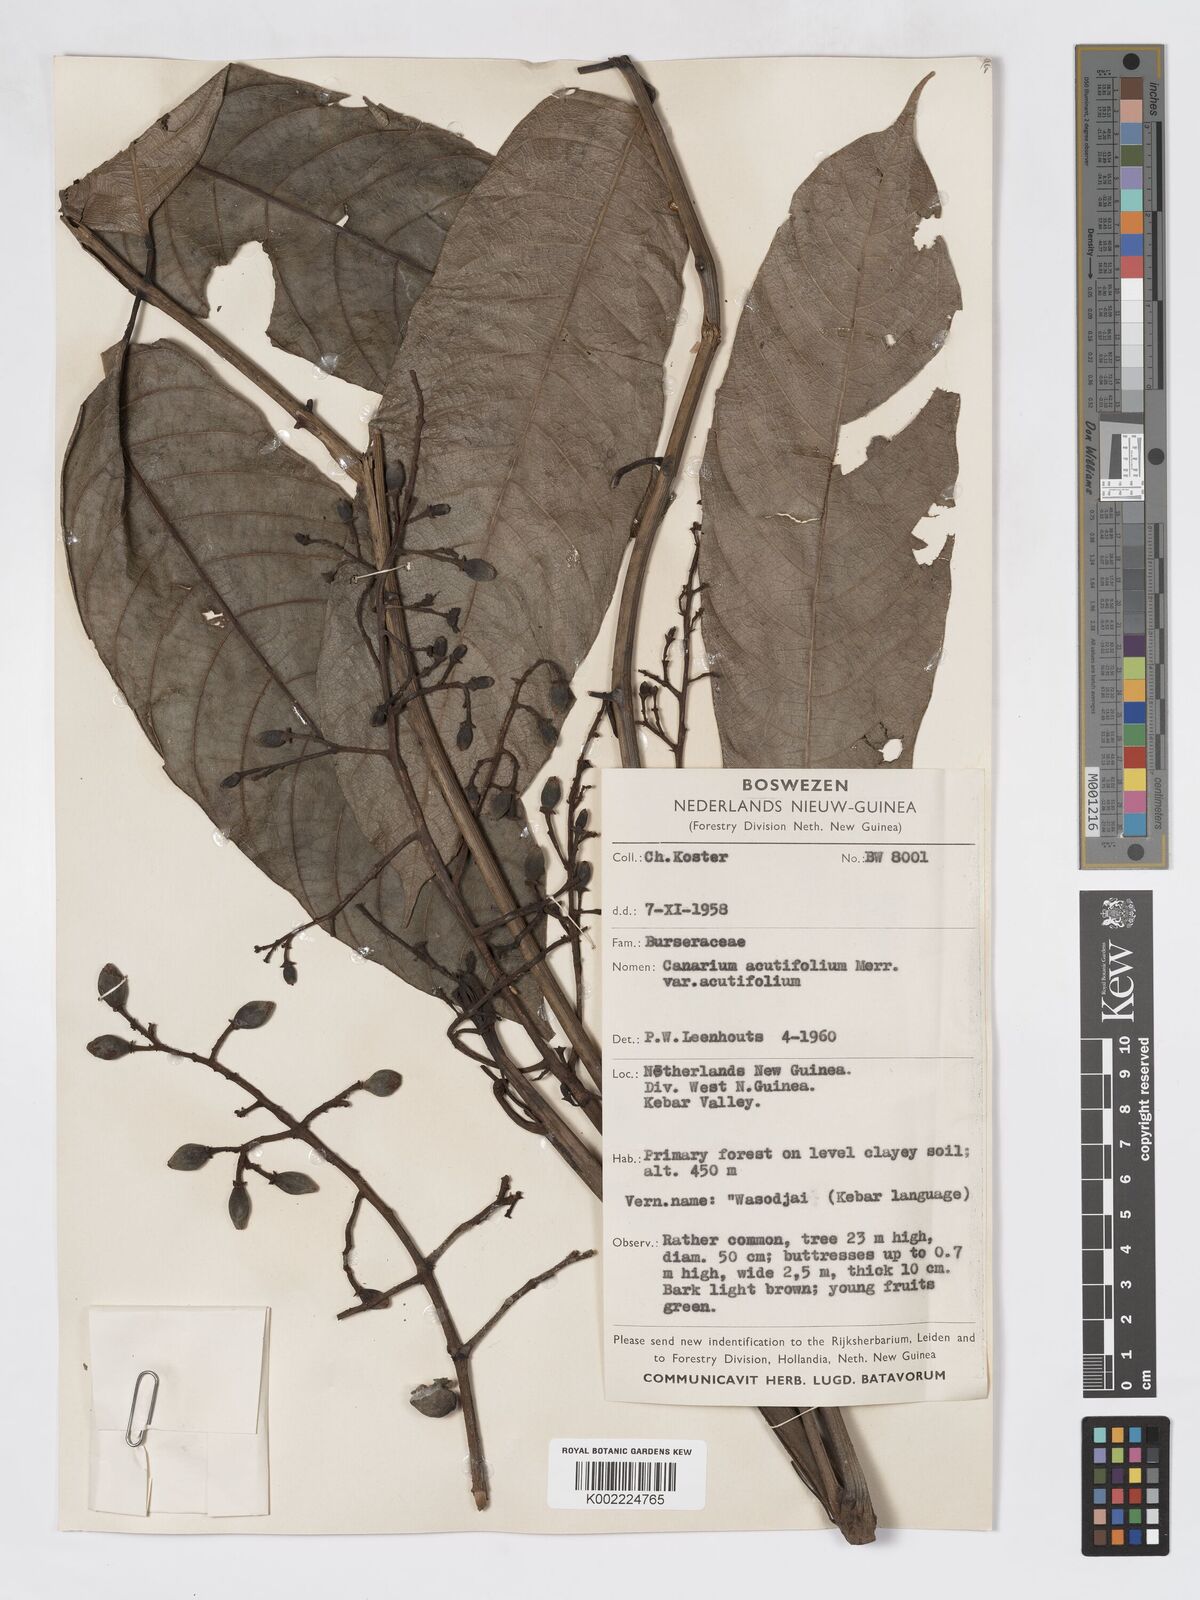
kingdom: Plantae
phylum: Tracheophyta
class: Magnoliopsida
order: Sapindales
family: Burseraceae
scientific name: Burseraceae
